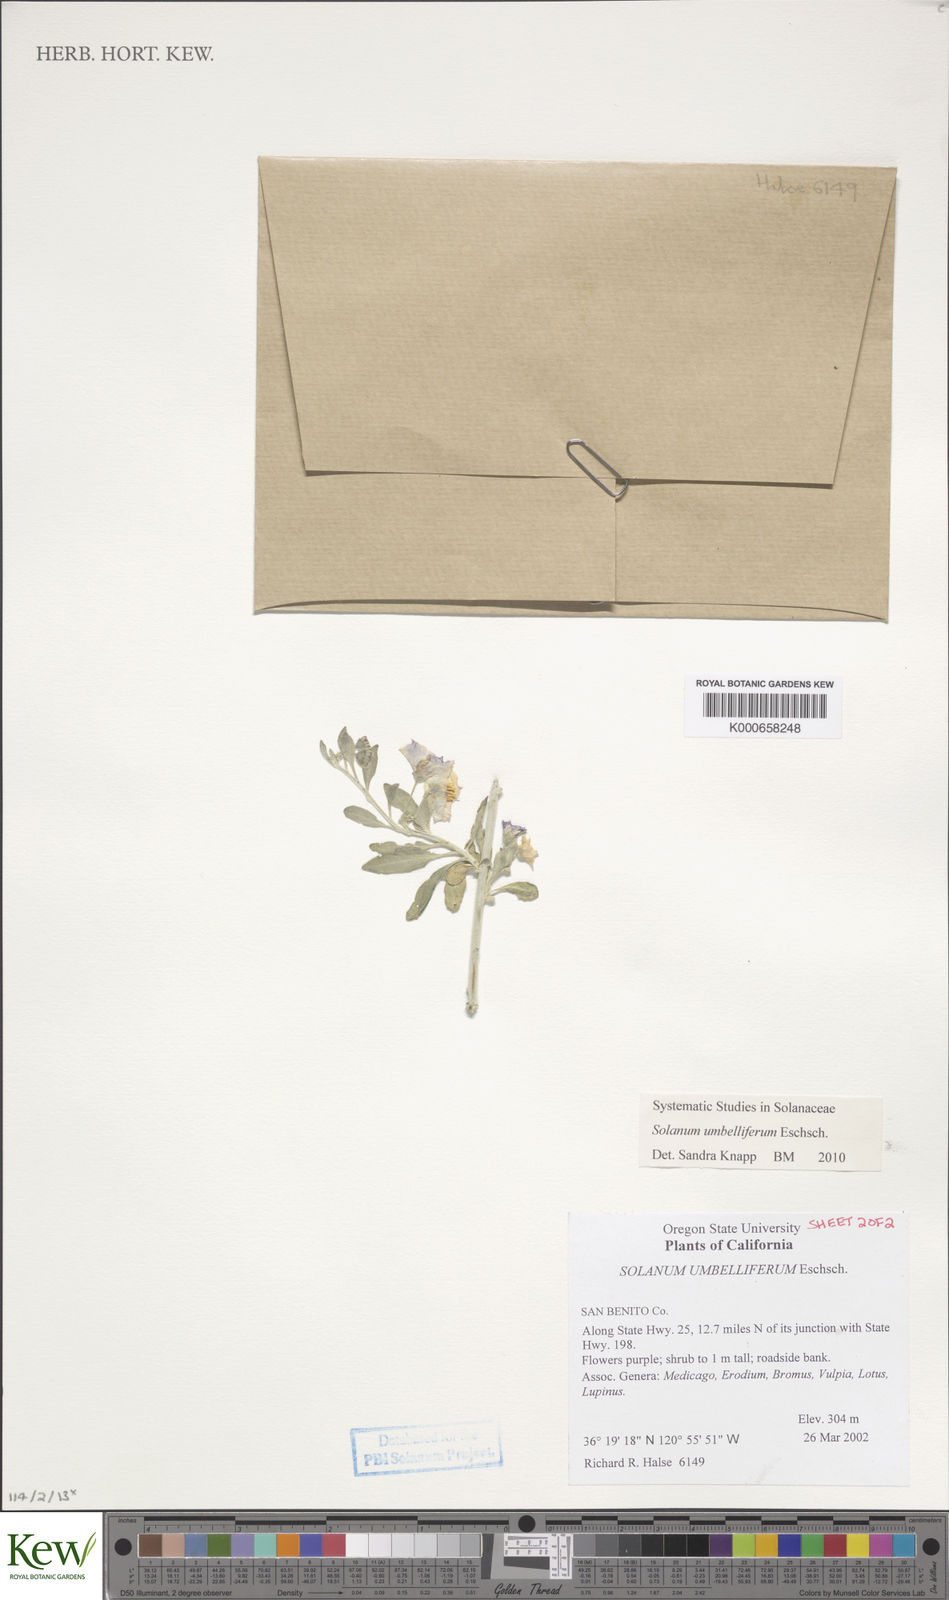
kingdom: Plantae
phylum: Tracheophyta
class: Magnoliopsida
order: Solanales
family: Solanaceae
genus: Solanum
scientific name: Solanum umbelliferum
